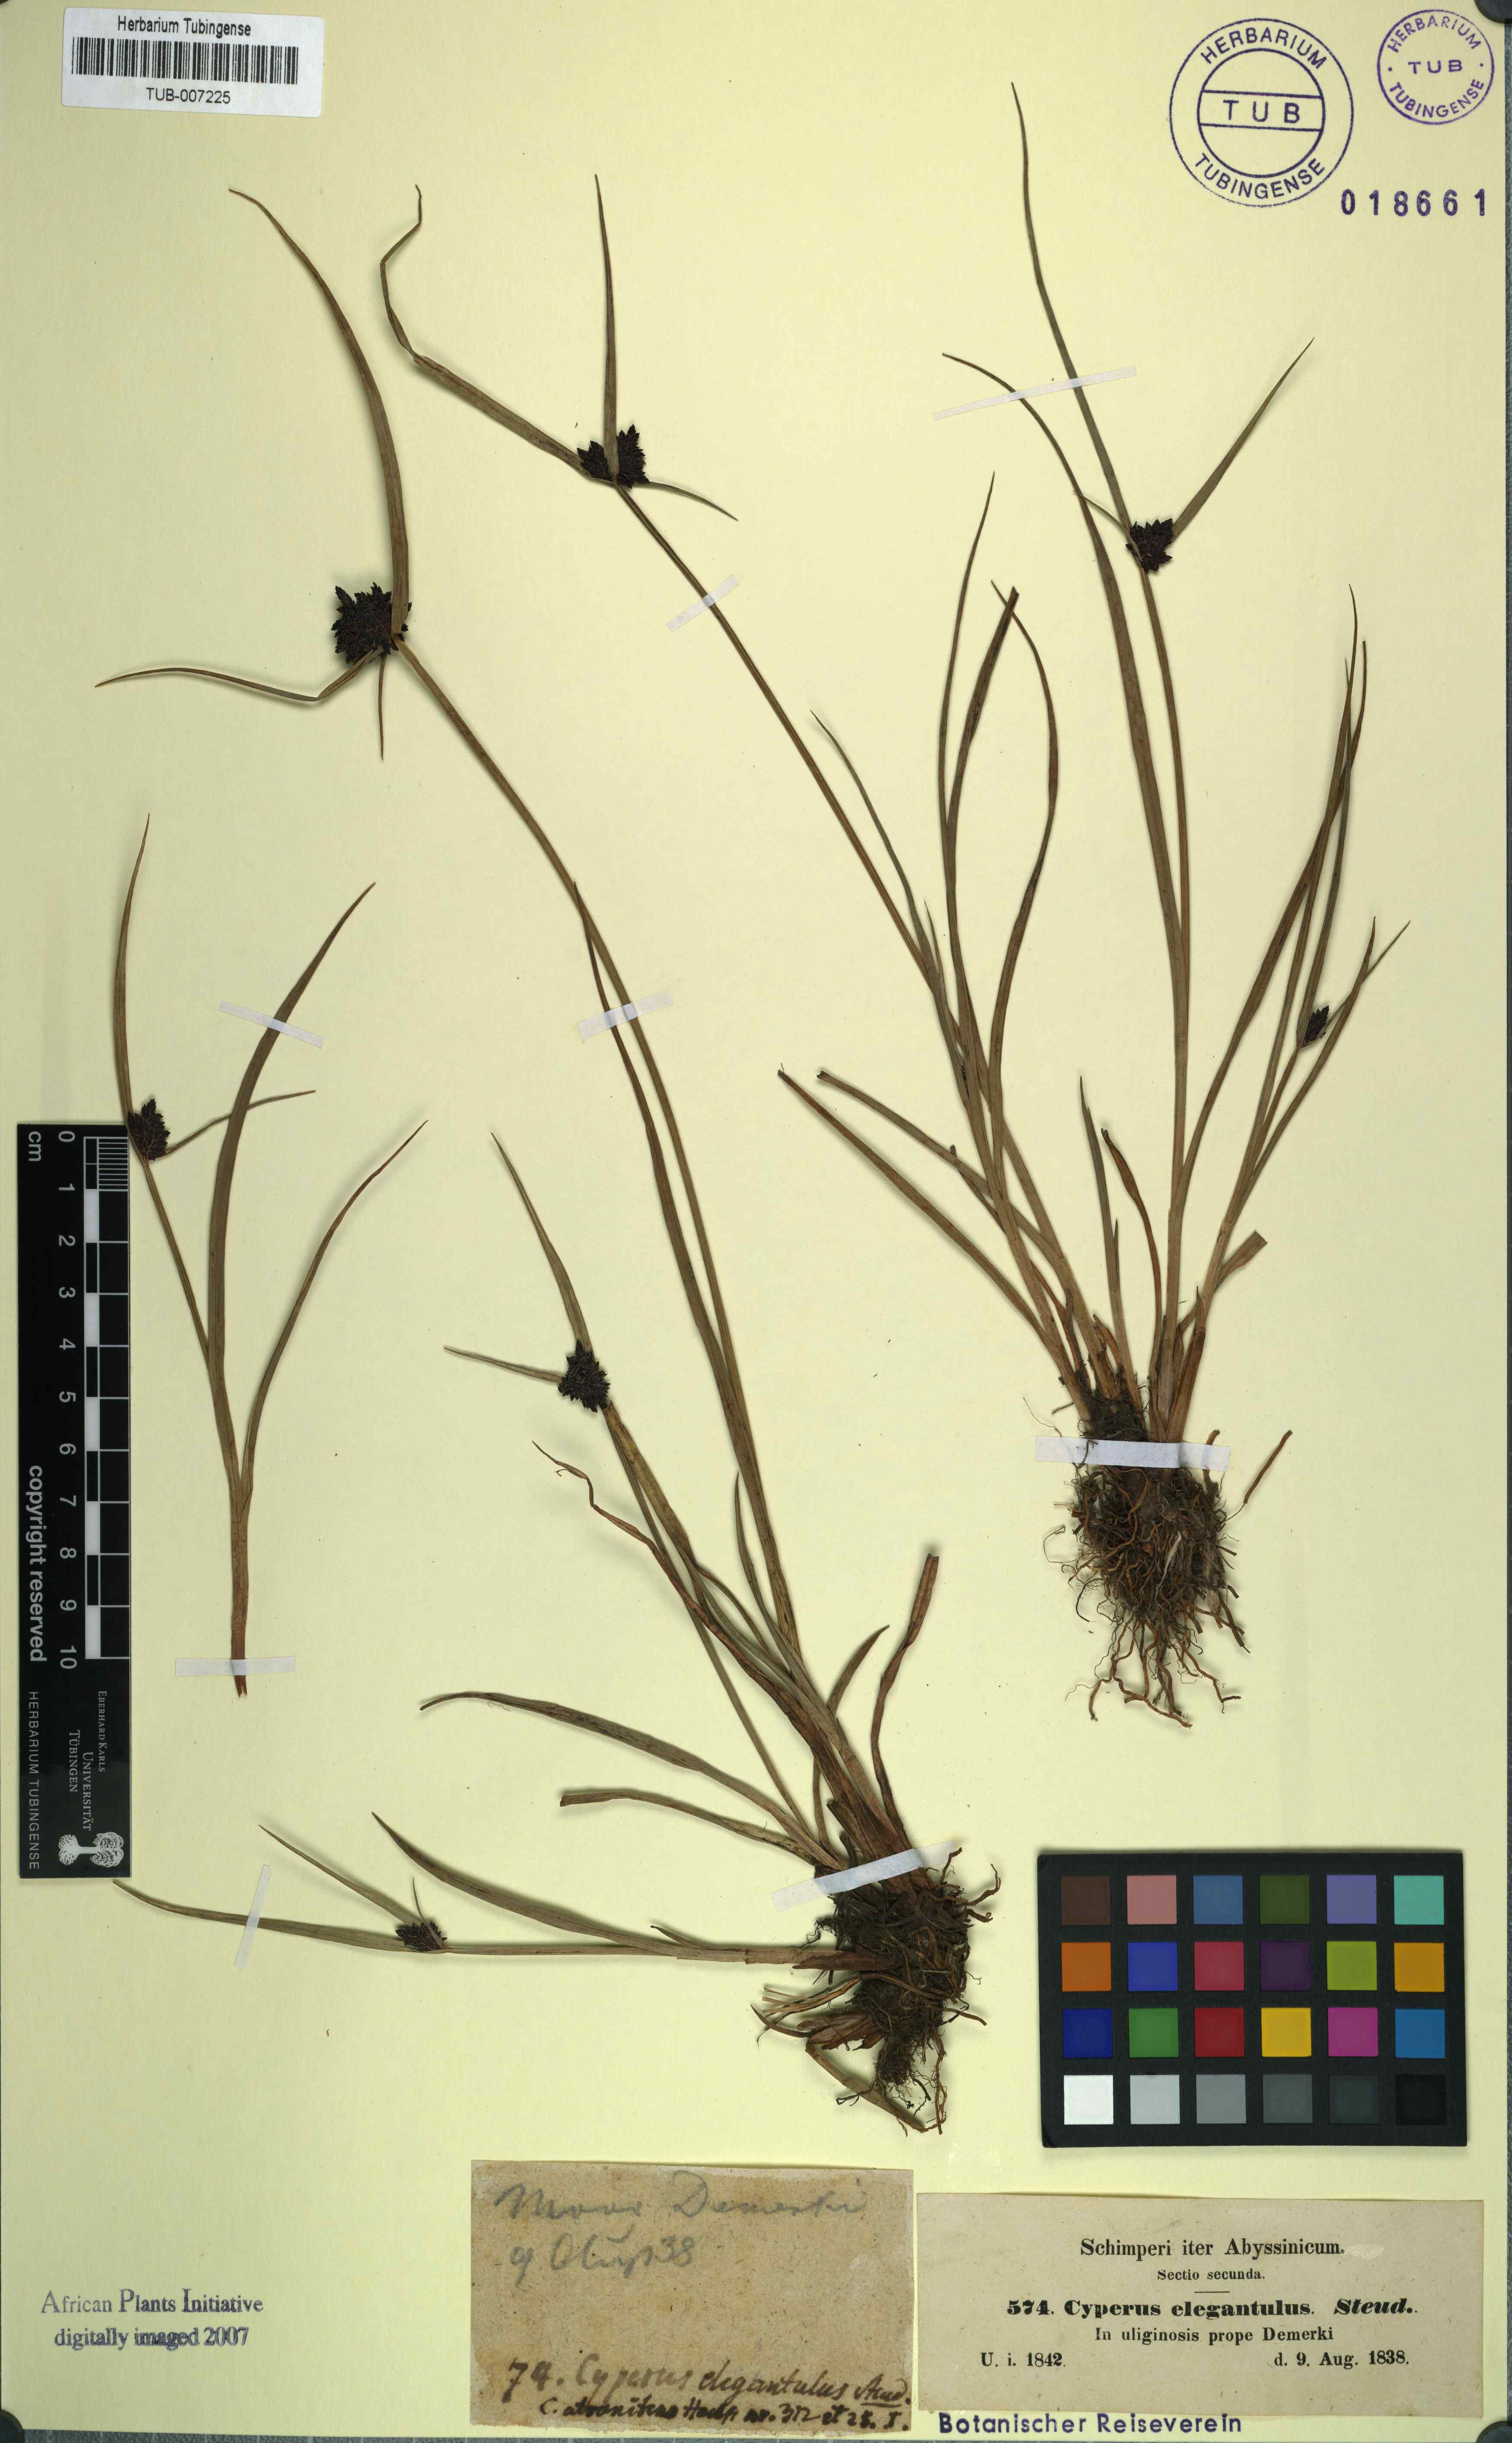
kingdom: Plantae
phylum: Tracheophyta
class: Liliopsida
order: Poales
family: Cyperaceae
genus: Cyperus
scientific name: Cyperus elegantulus
